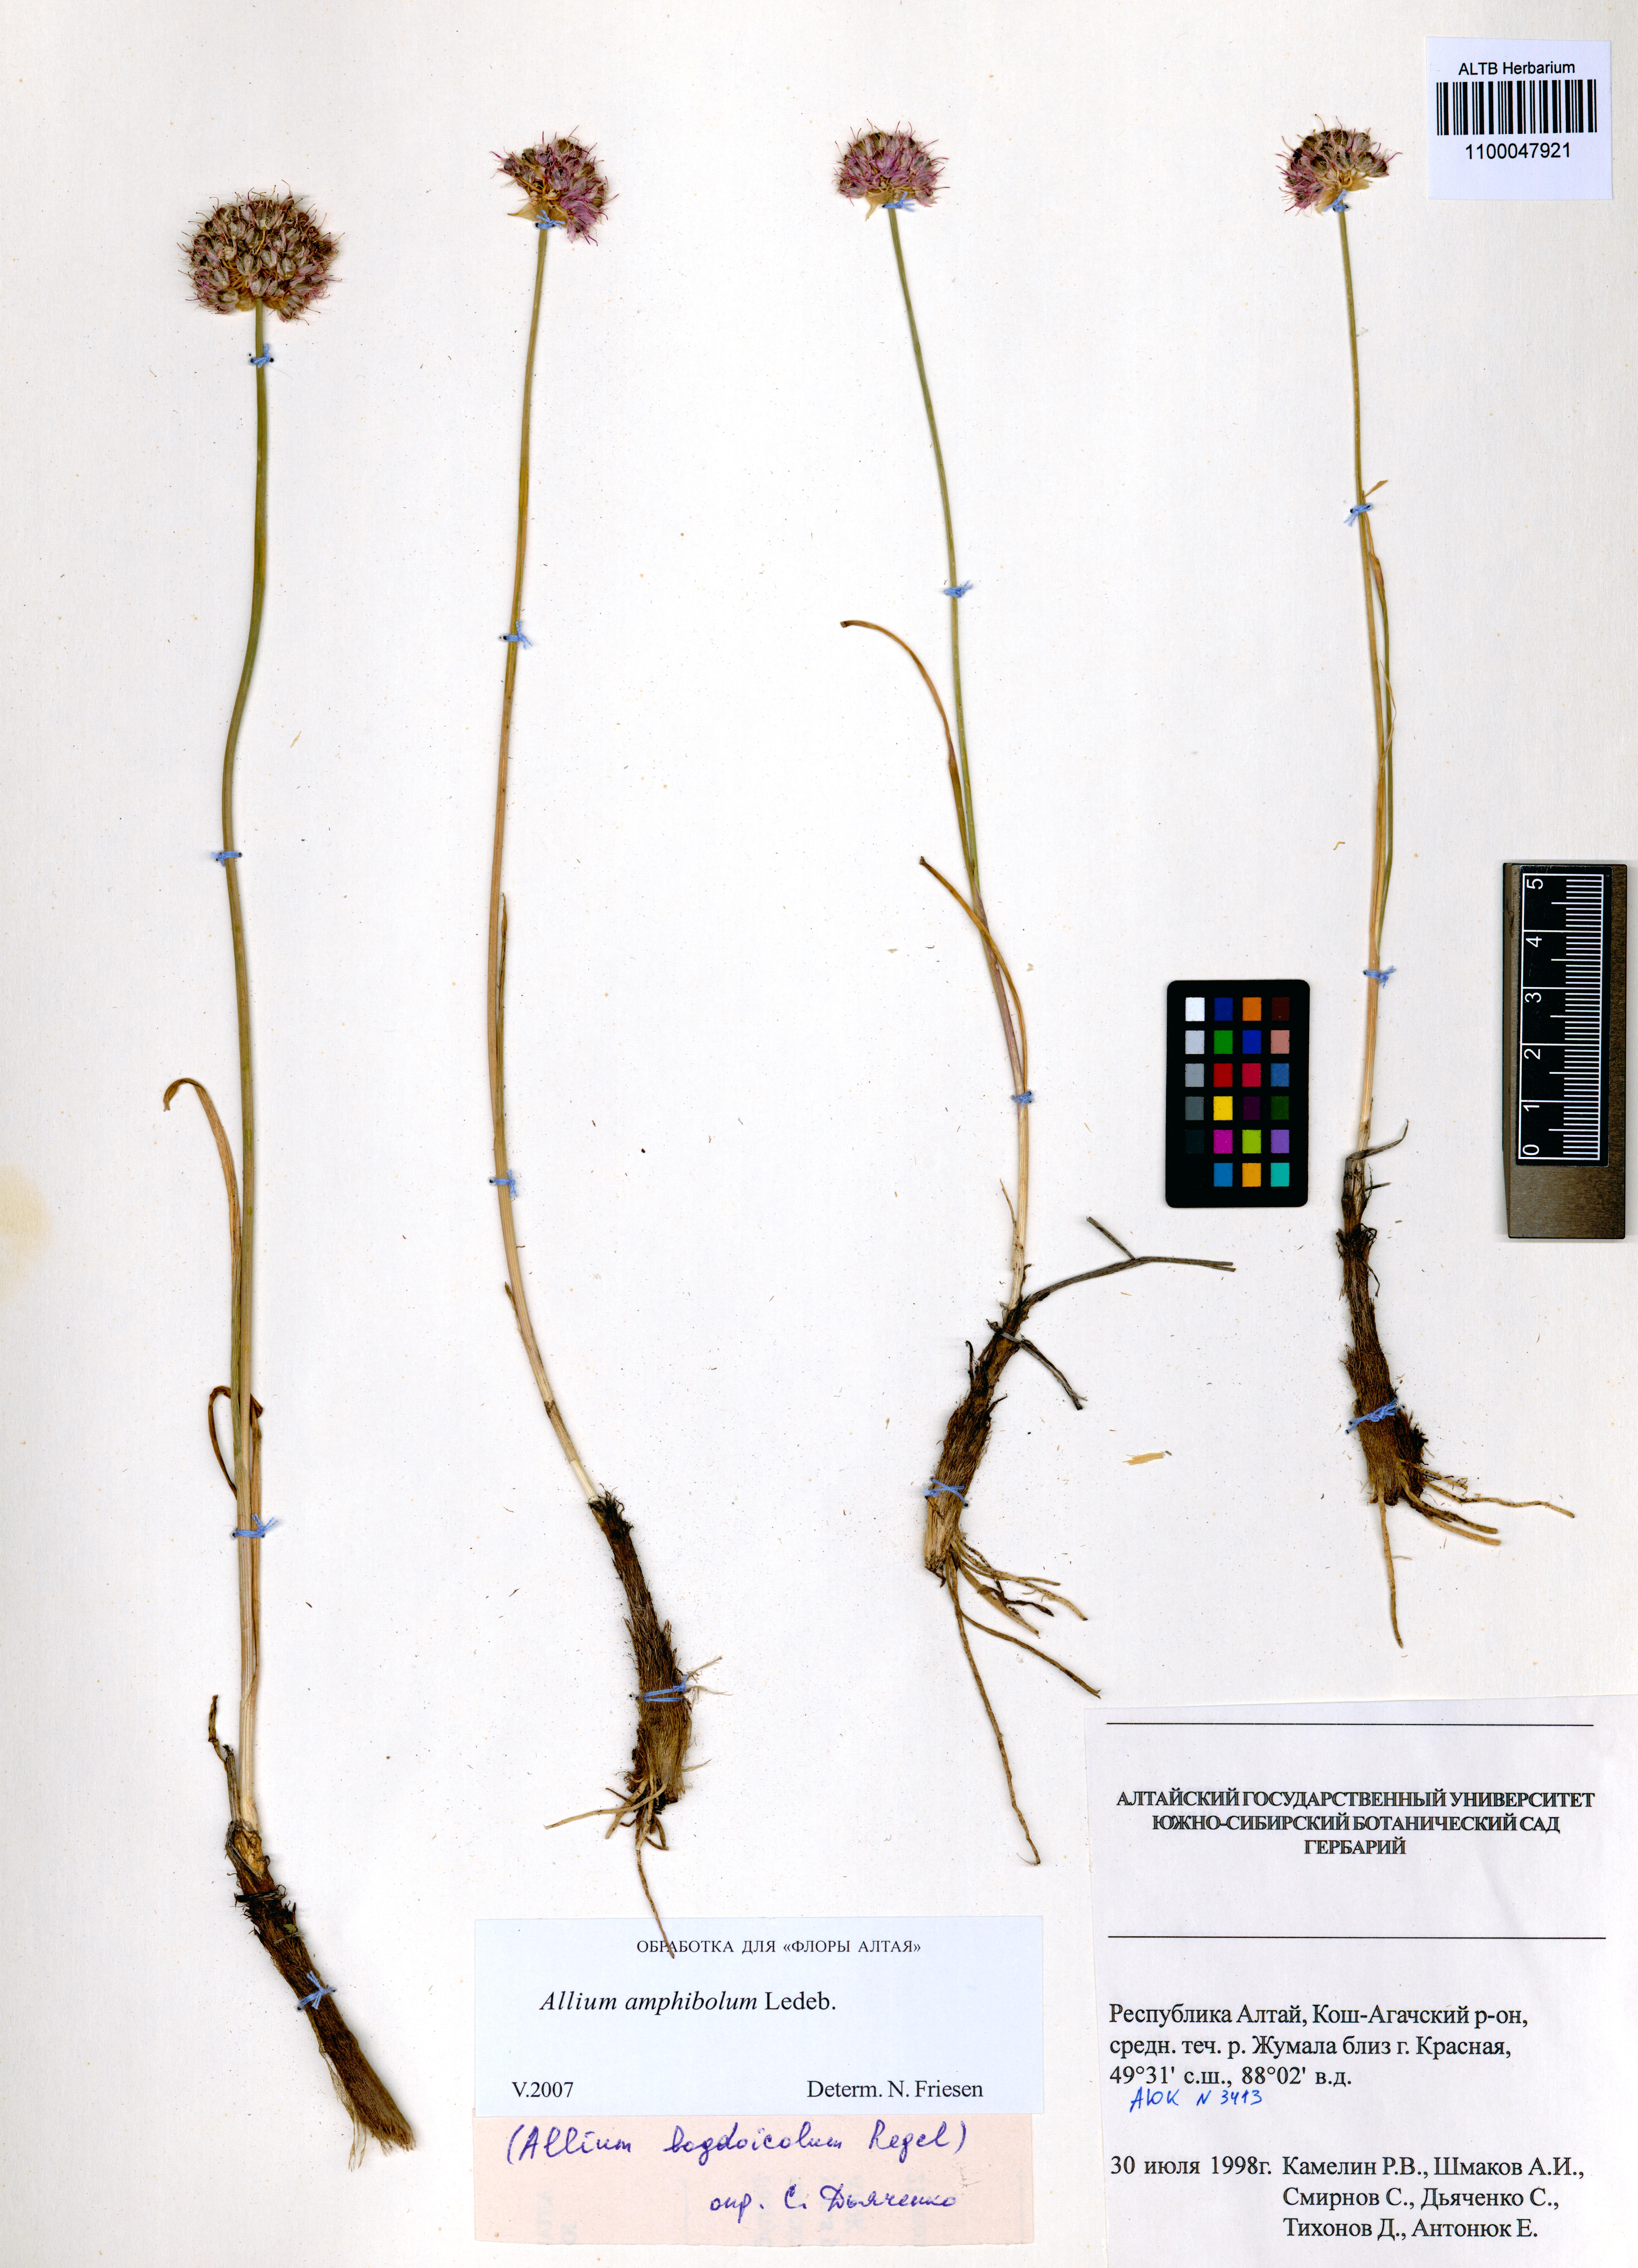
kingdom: Plantae
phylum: Tracheophyta
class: Liliopsida
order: Asparagales
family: Amaryllidaceae
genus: Allium
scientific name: Allium amphibolum
